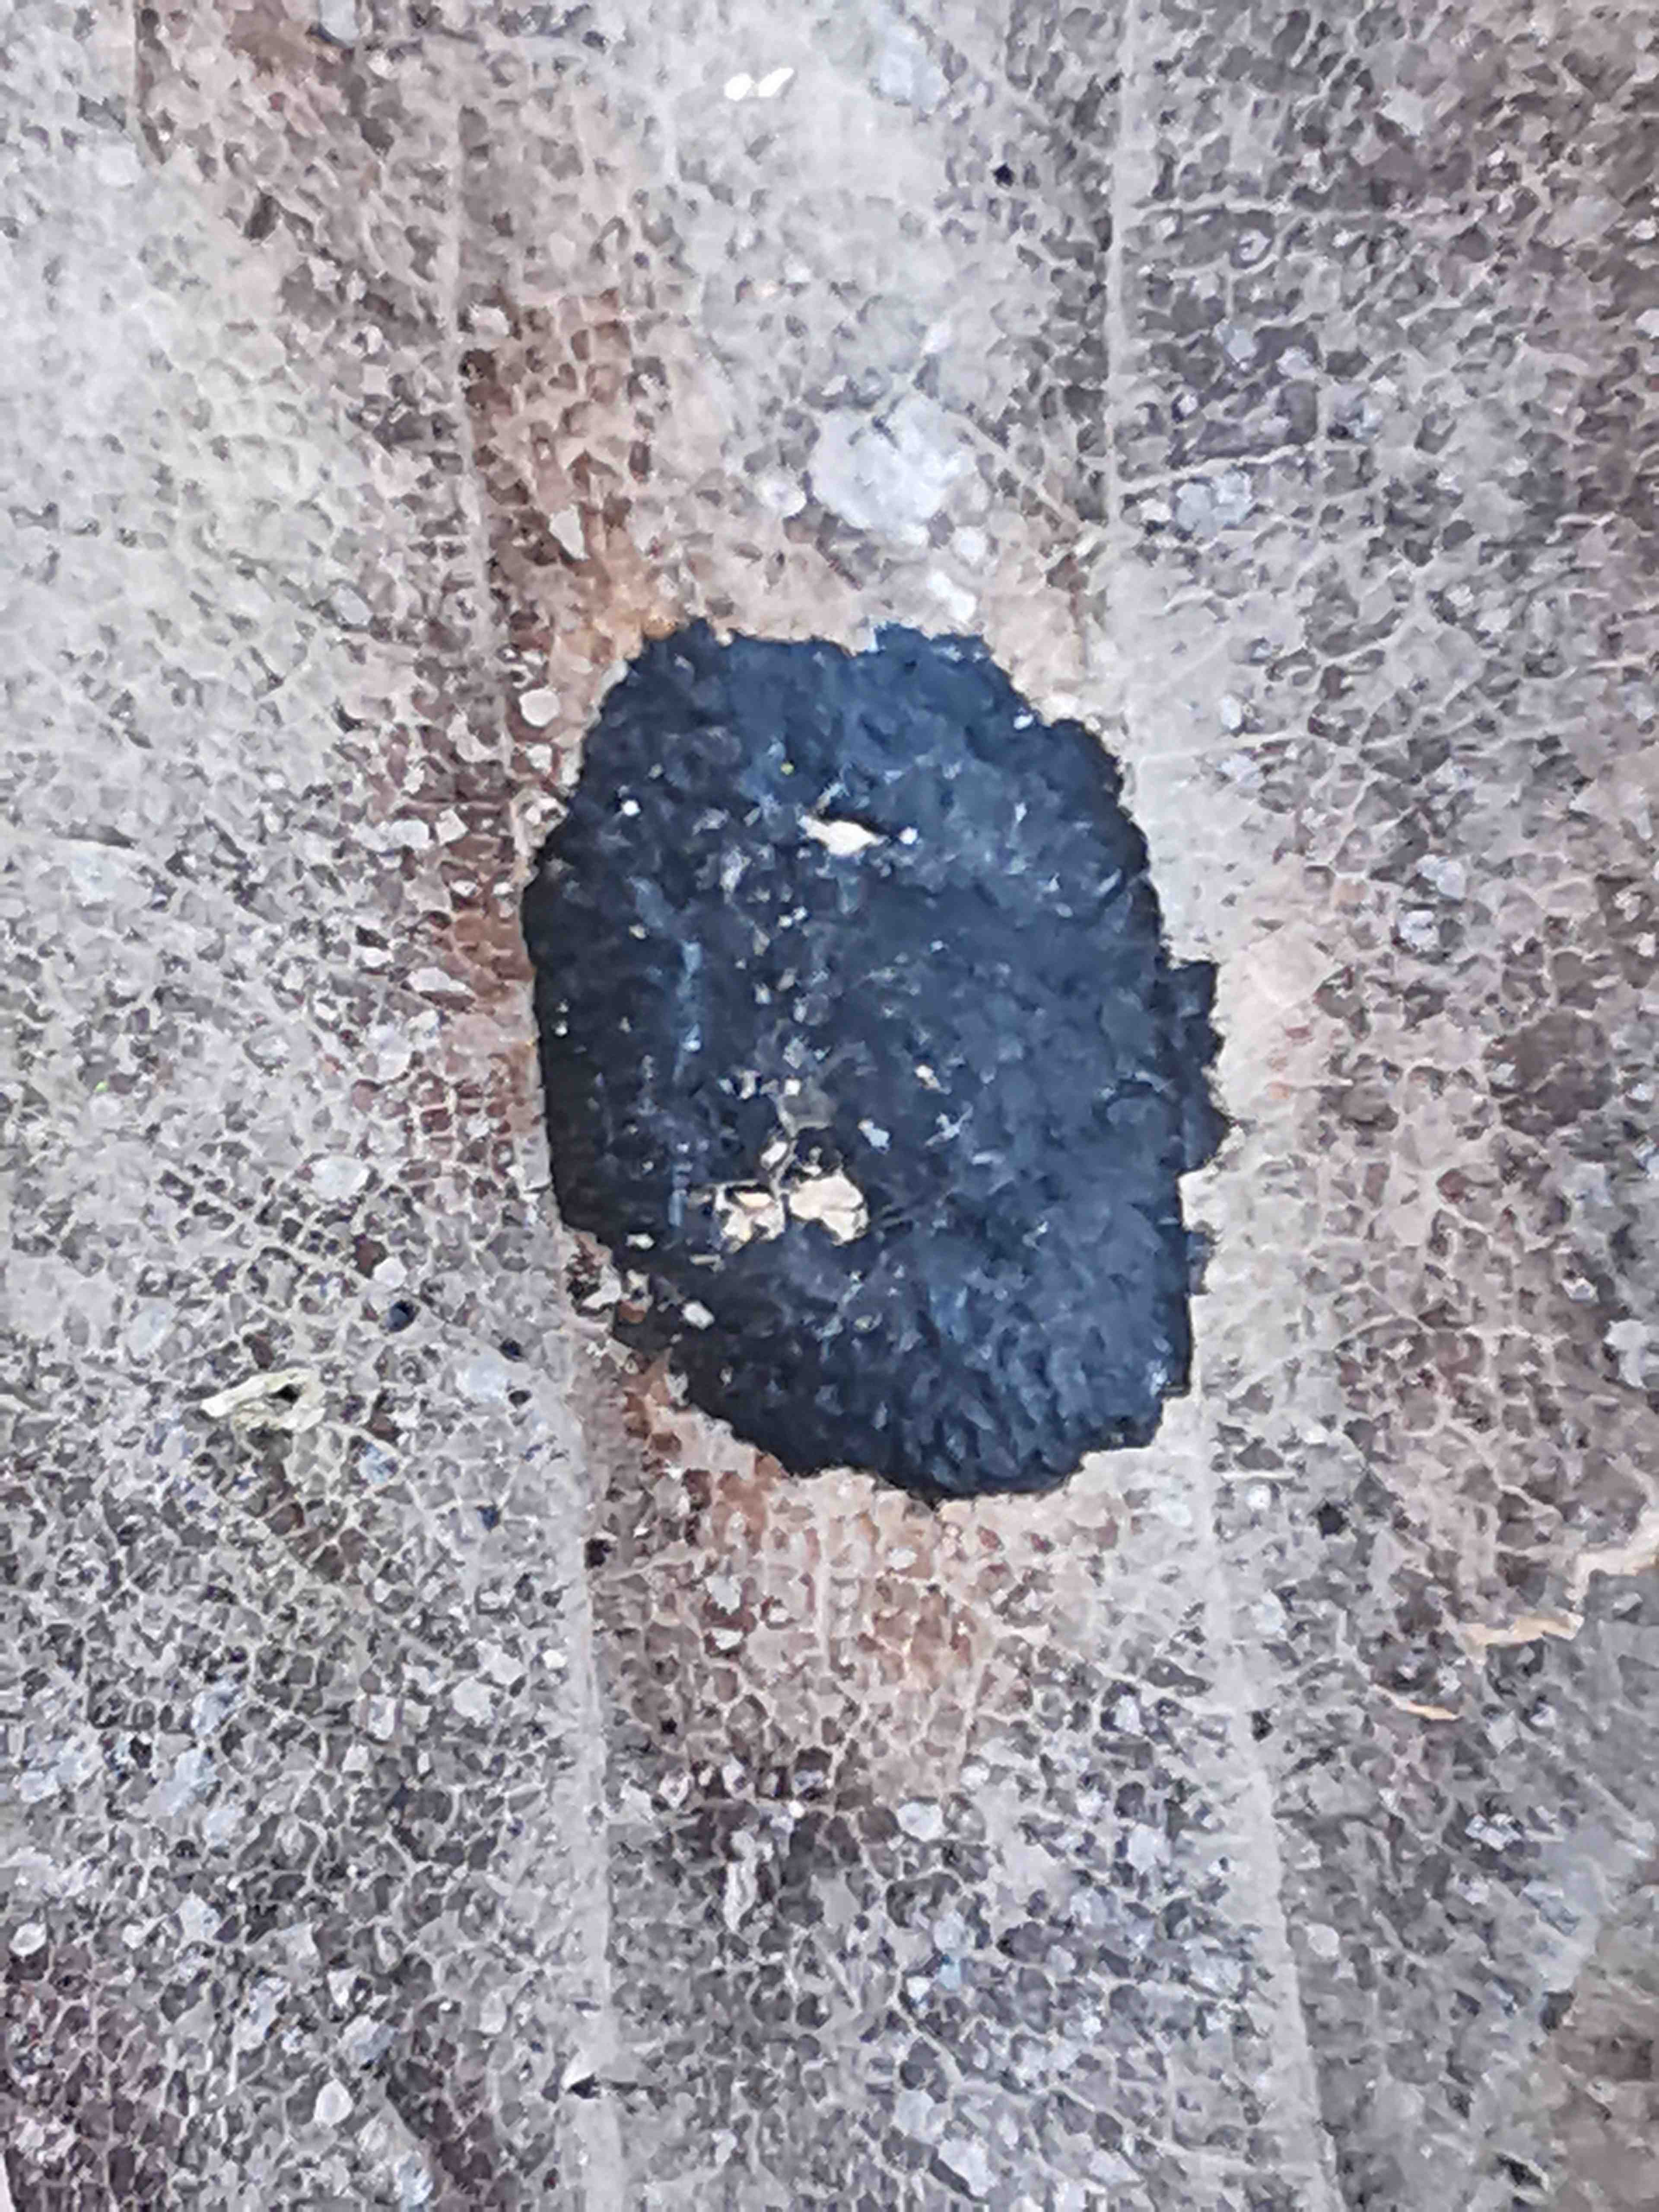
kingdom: Fungi
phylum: Ascomycota
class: Leotiomycetes
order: Rhytismatales
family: Rhytismataceae
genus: Rhytisma
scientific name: Rhytisma acerinum
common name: ahorn-rynkeplet
